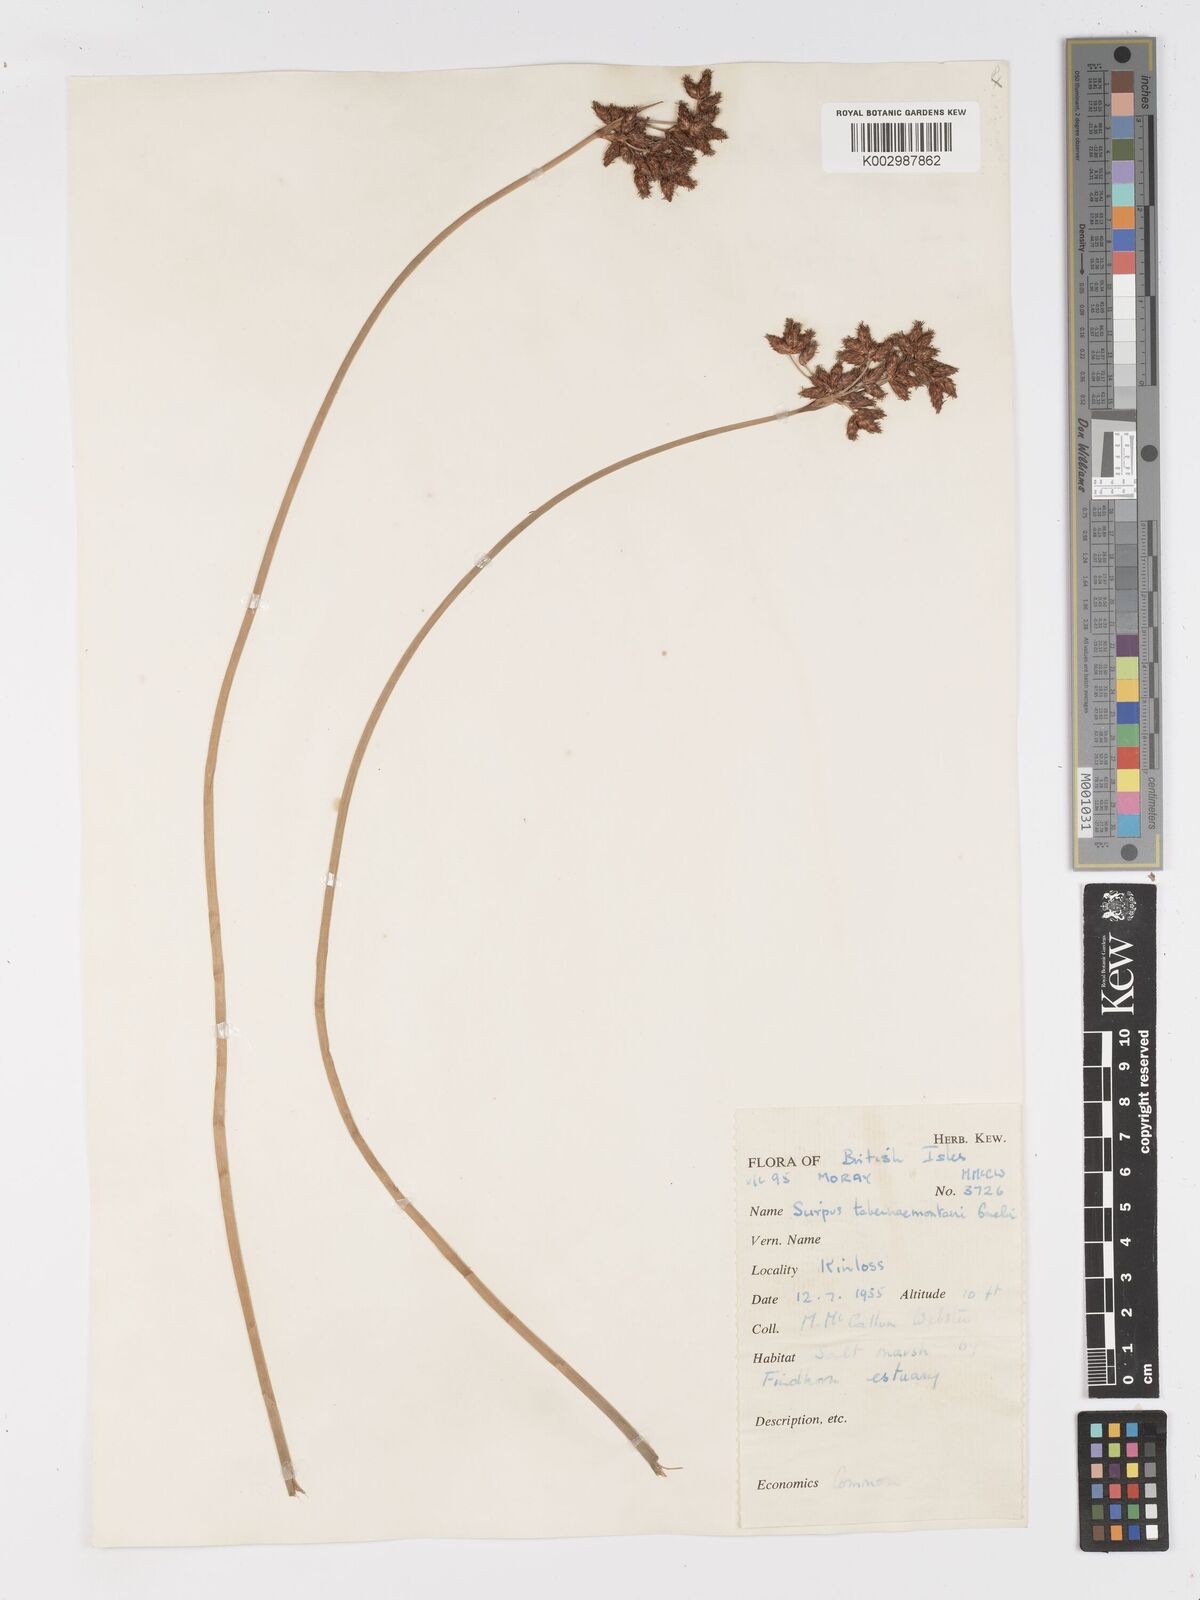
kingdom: Plantae
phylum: Tracheophyta
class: Liliopsida
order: Poales
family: Cyperaceae
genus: Schoenoplectus
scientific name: Schoenoplectus tabernaemontani
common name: Grey club-rush
